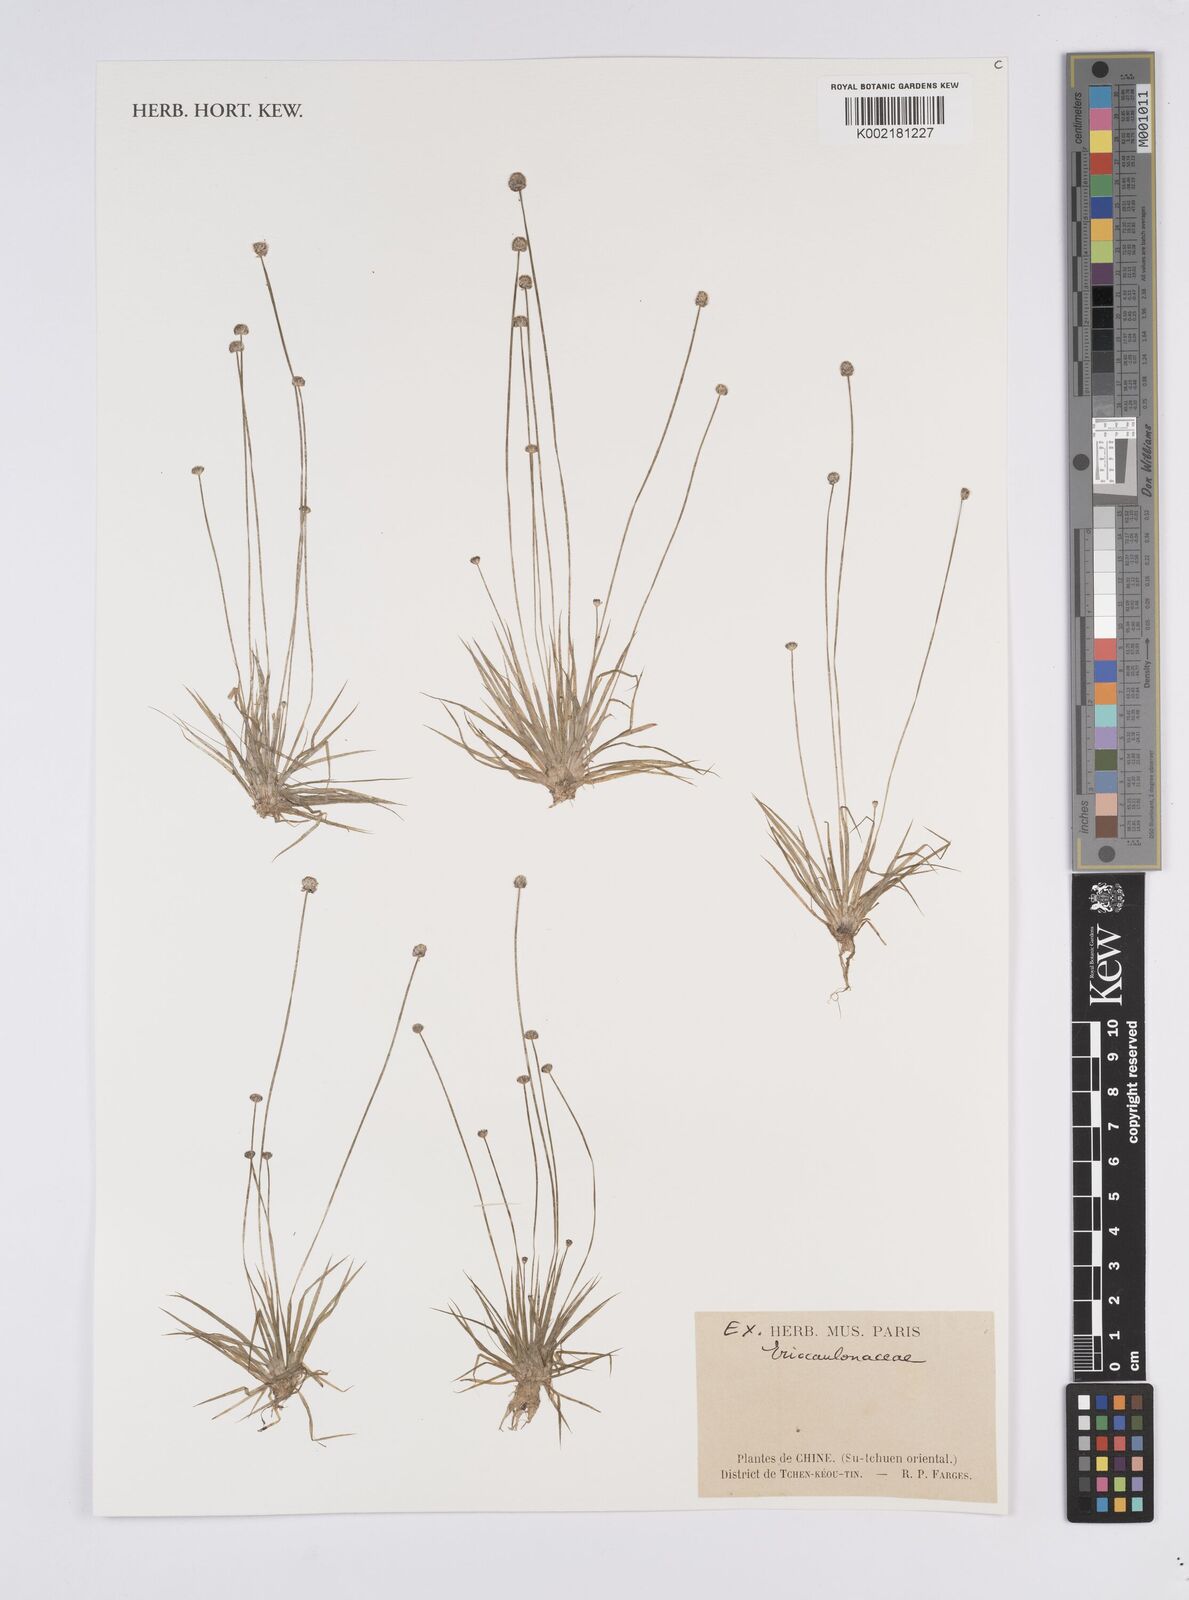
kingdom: Plantae
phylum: Tracheophyta
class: Liliopsida
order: Poales
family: Eriocaulaceae
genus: Eriocaulon
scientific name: Eriocaulon
